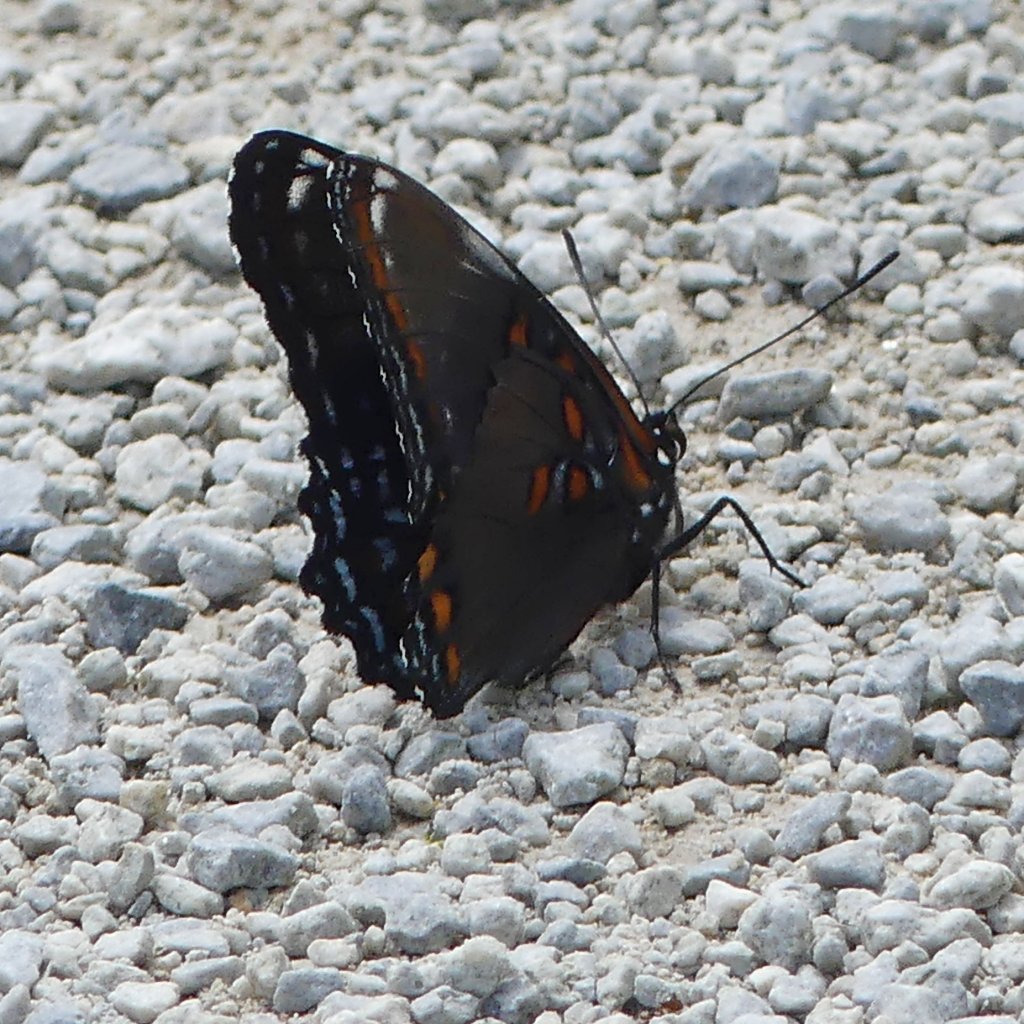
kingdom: Animalia
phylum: Arthropoda
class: Insecta
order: Lepidoptera
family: Nymphalidae
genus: Limenitis
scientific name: Limenitis astyanax
